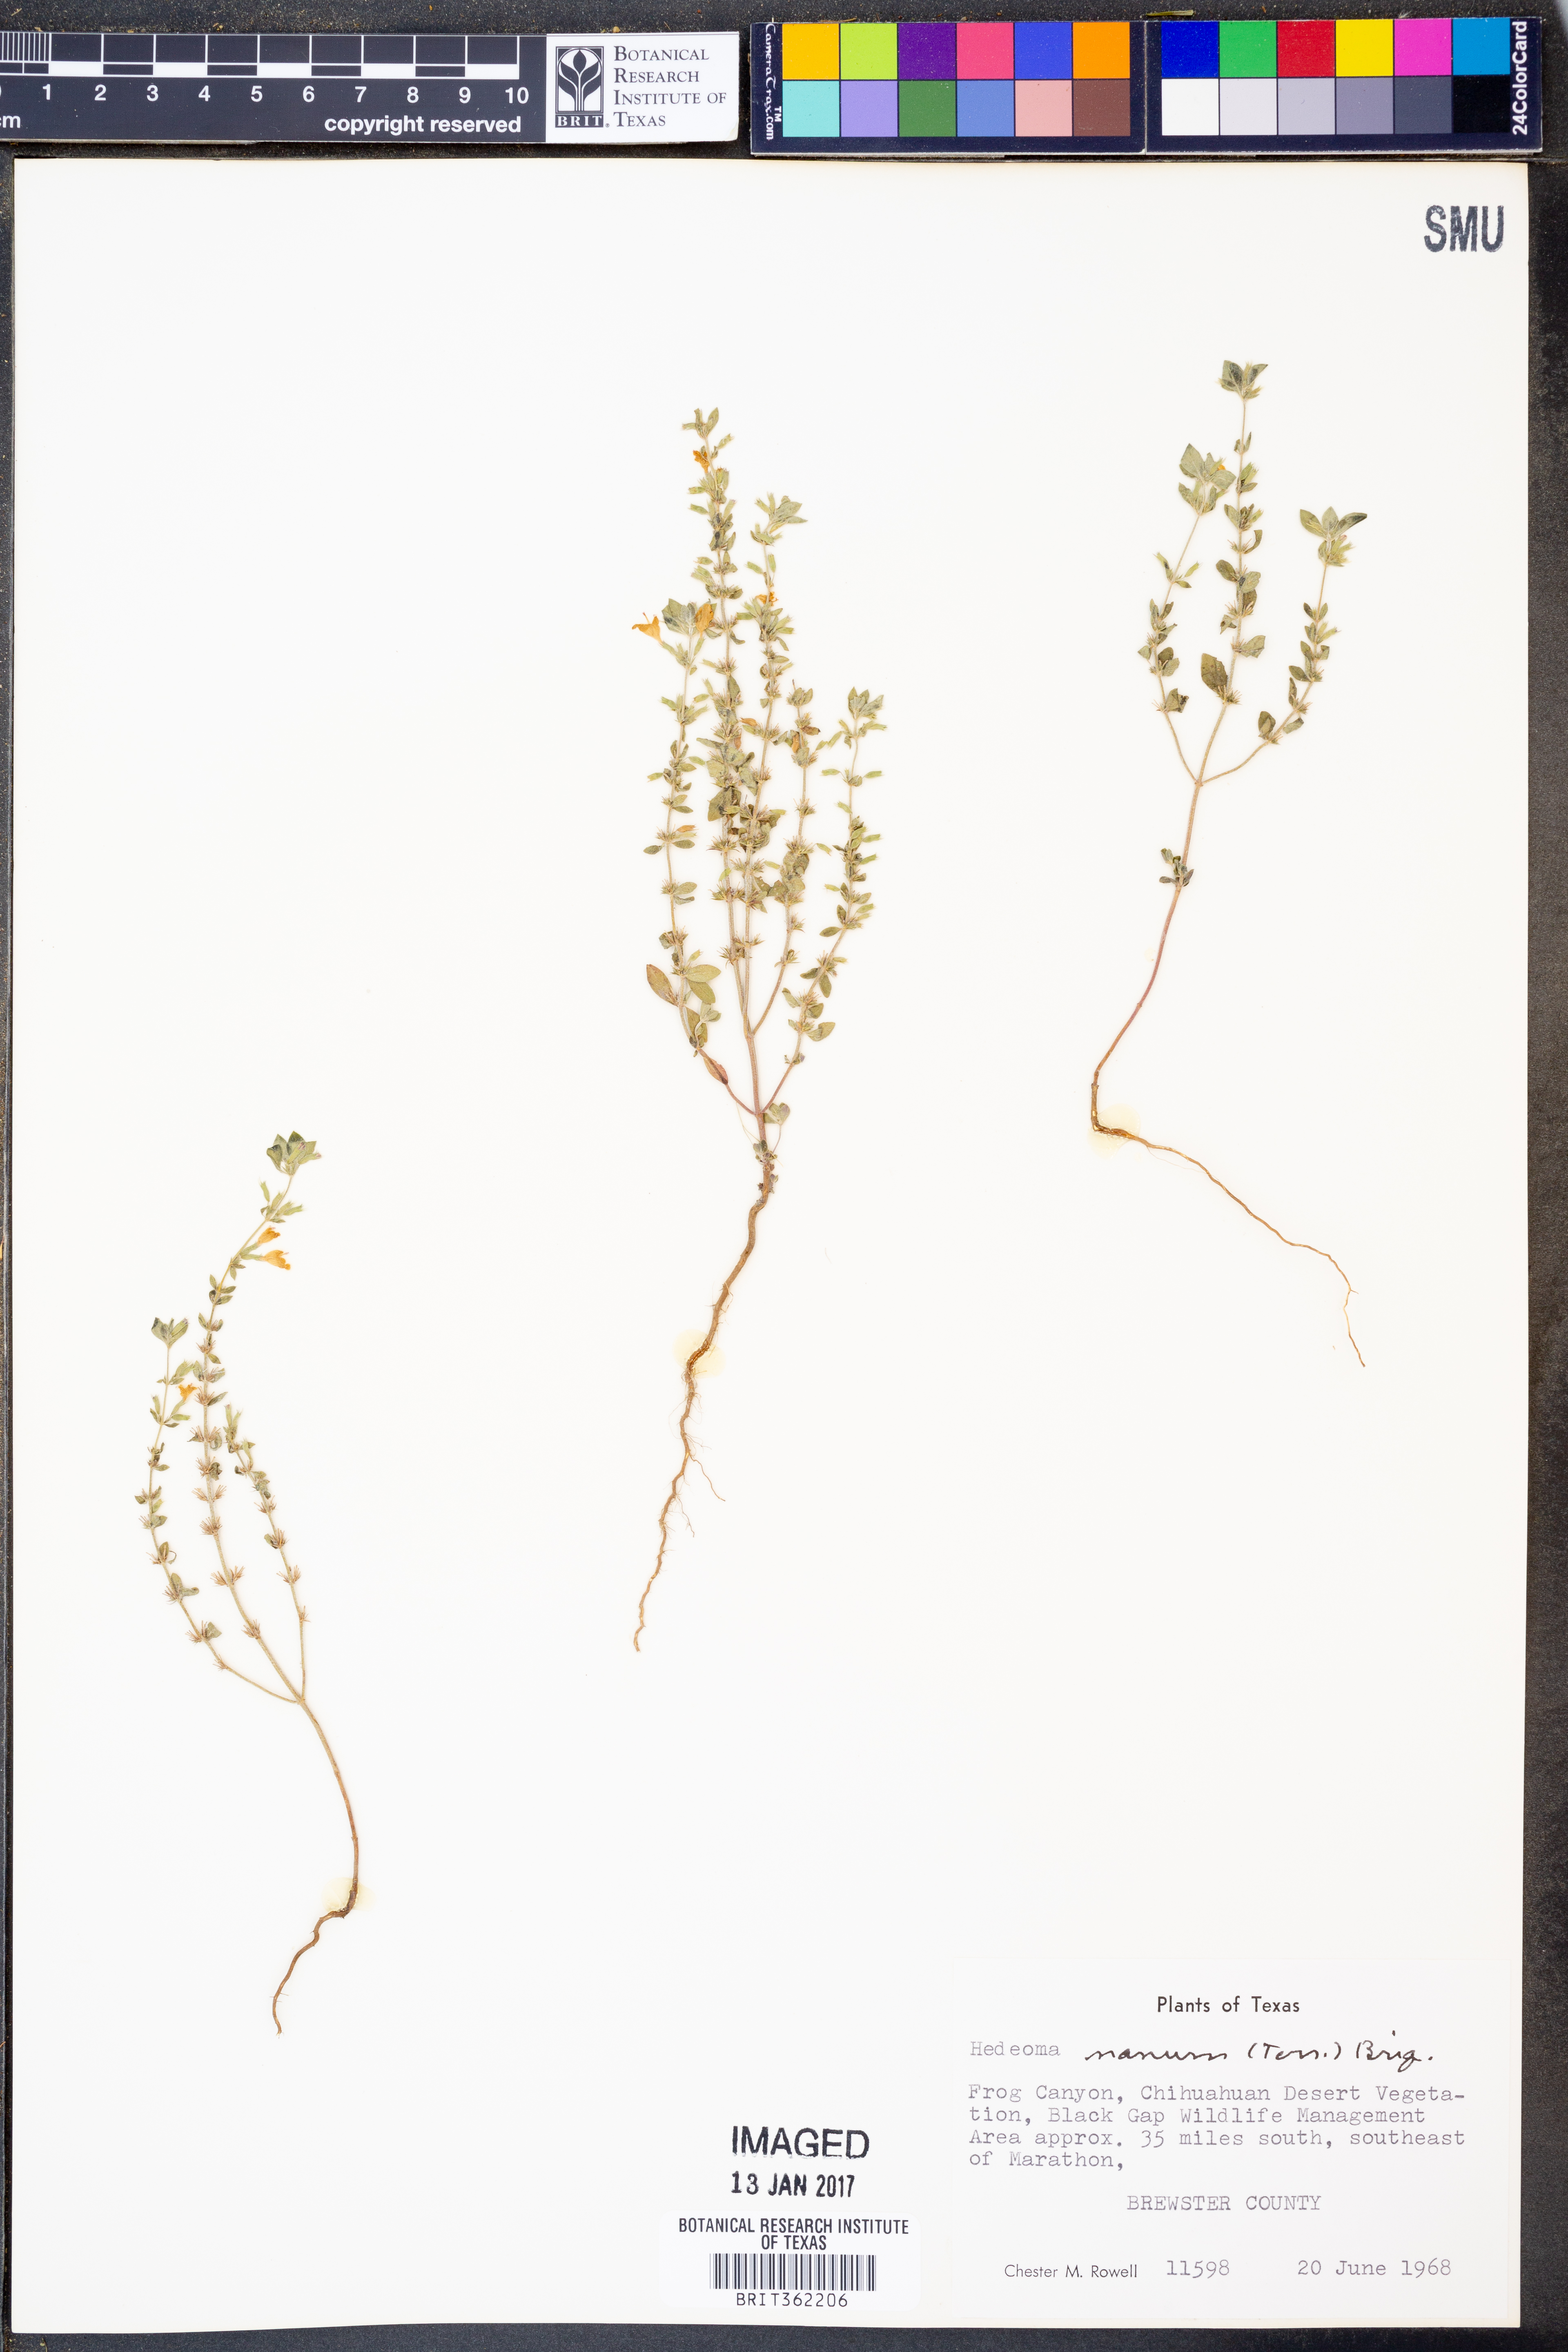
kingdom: Plantae
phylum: Tracheophyta
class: Magnoliopsida
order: Lamiales
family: Lamiaceae
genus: Hedeoma
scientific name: Hedeoma nana
